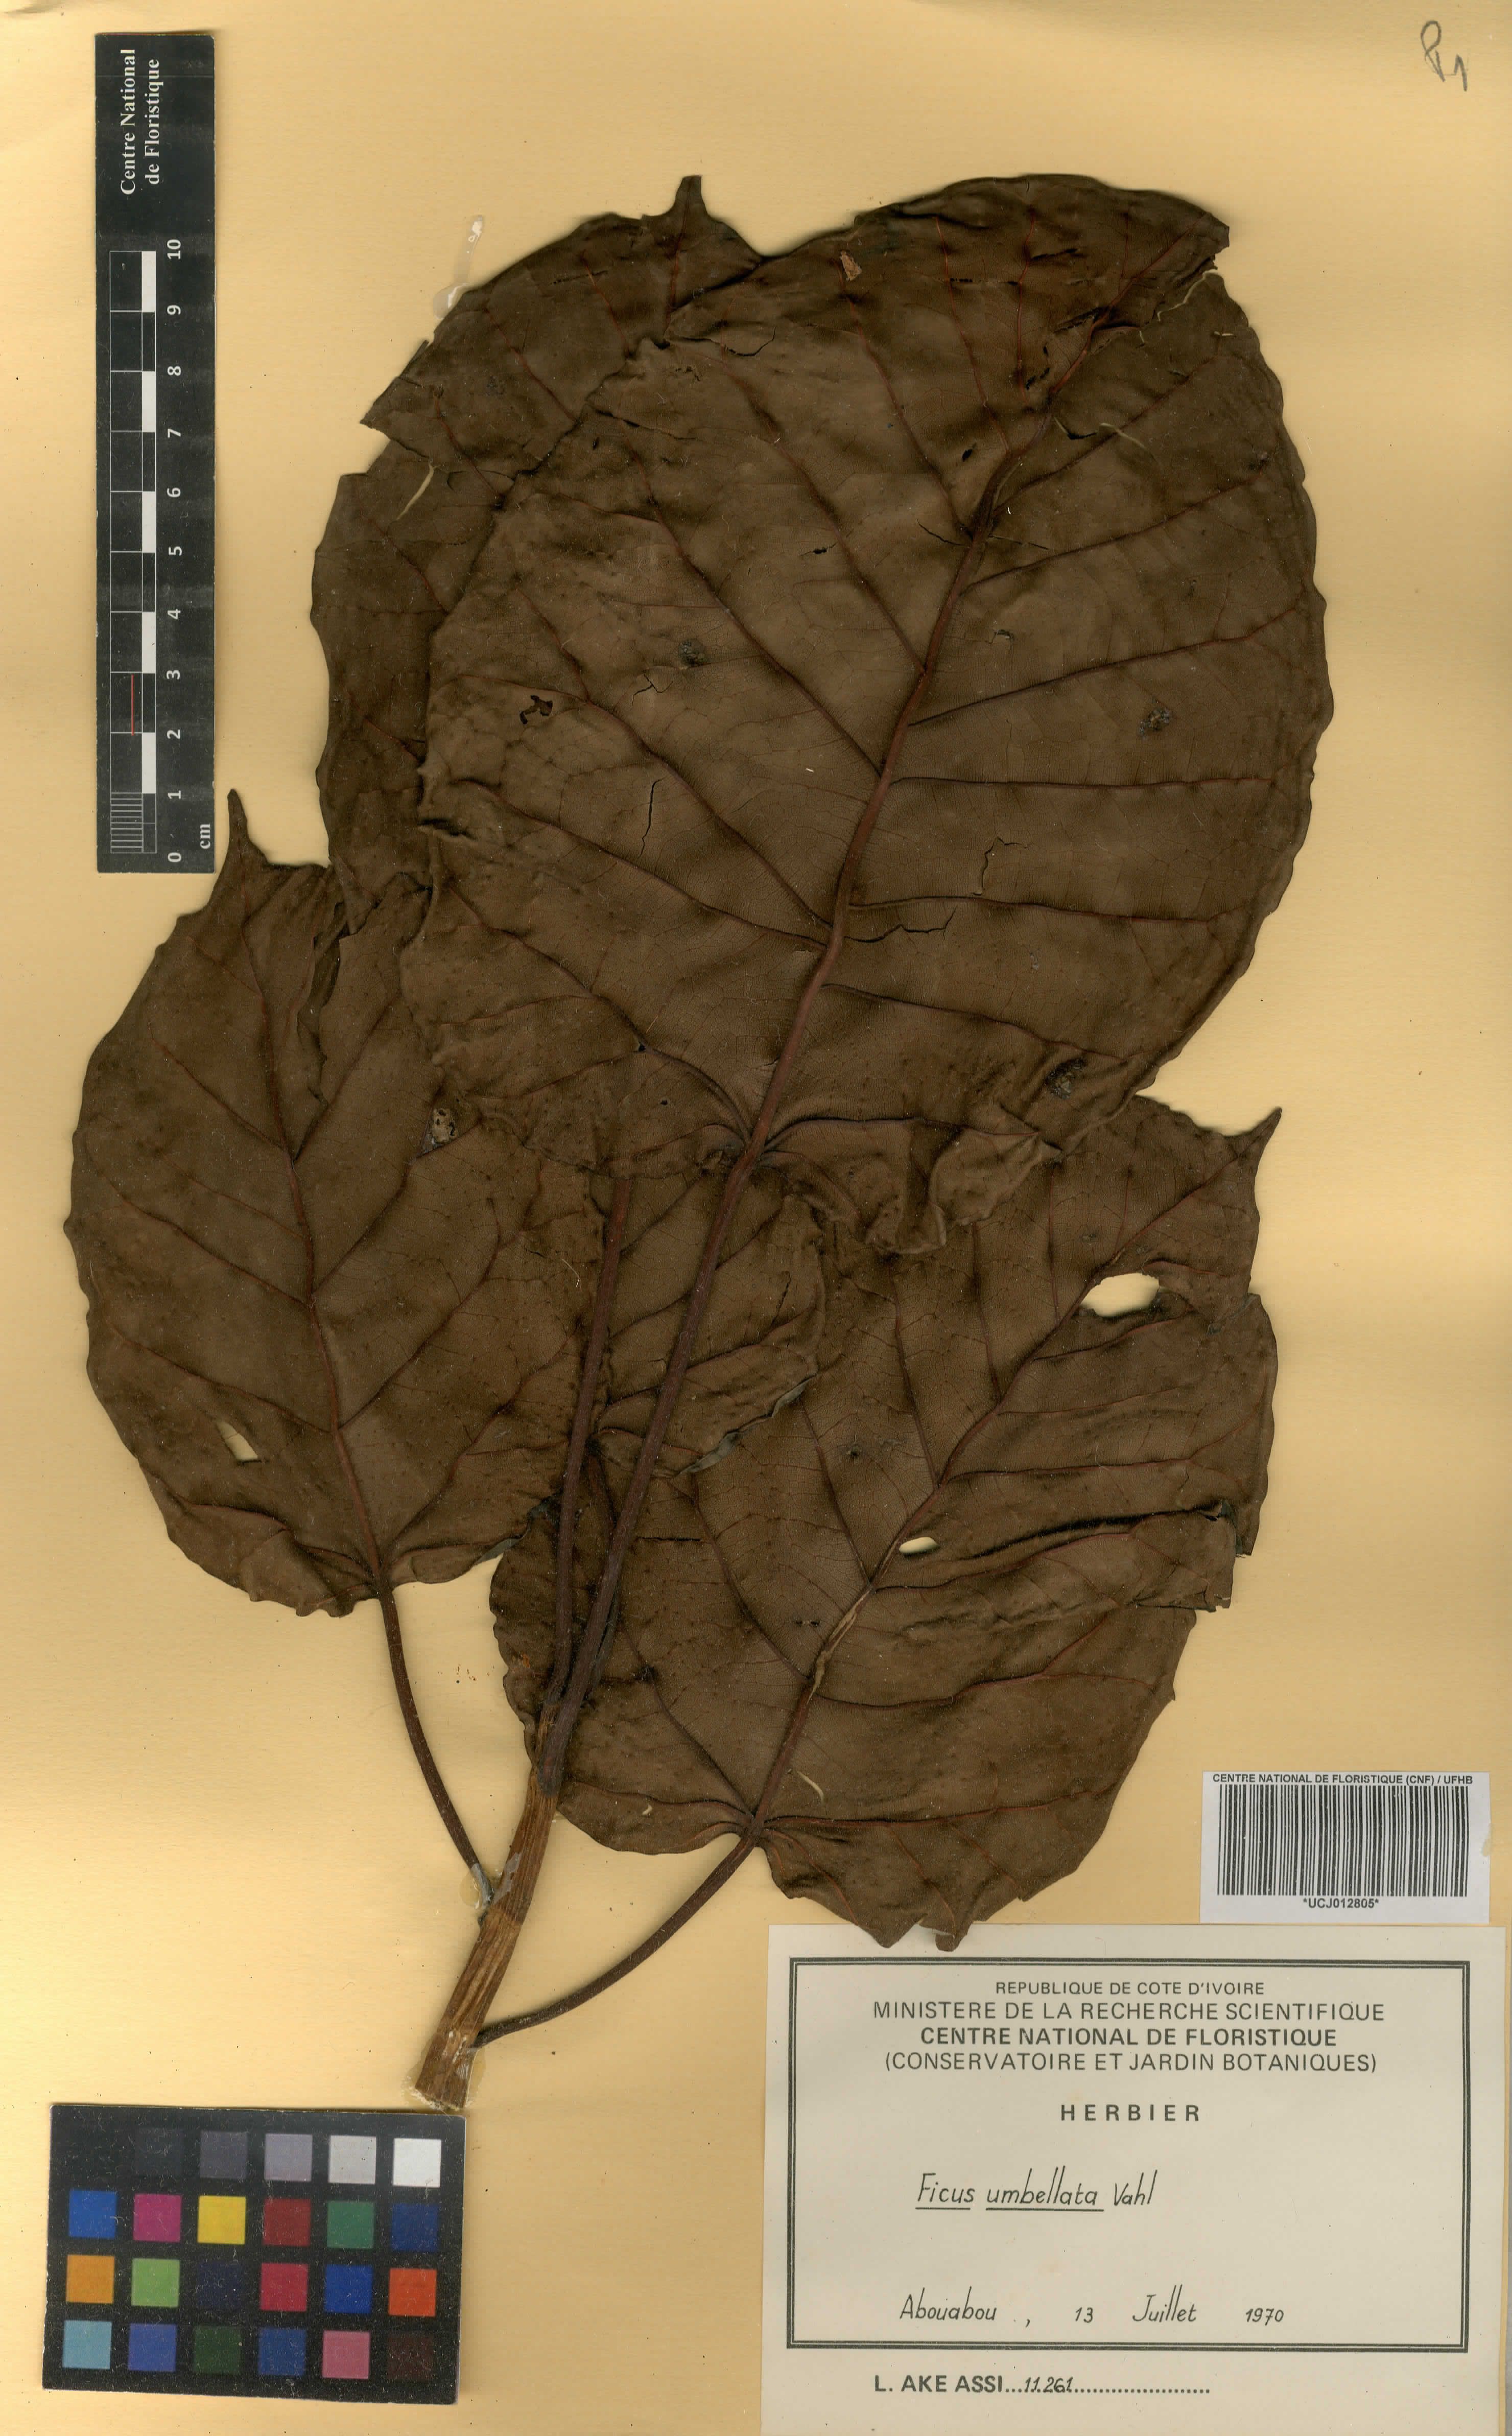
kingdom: Plantae
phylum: Tracheophyta
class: Magnoliopsida
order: Rosales
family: Moraceae
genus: Ficus
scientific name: Ficus umbellata
